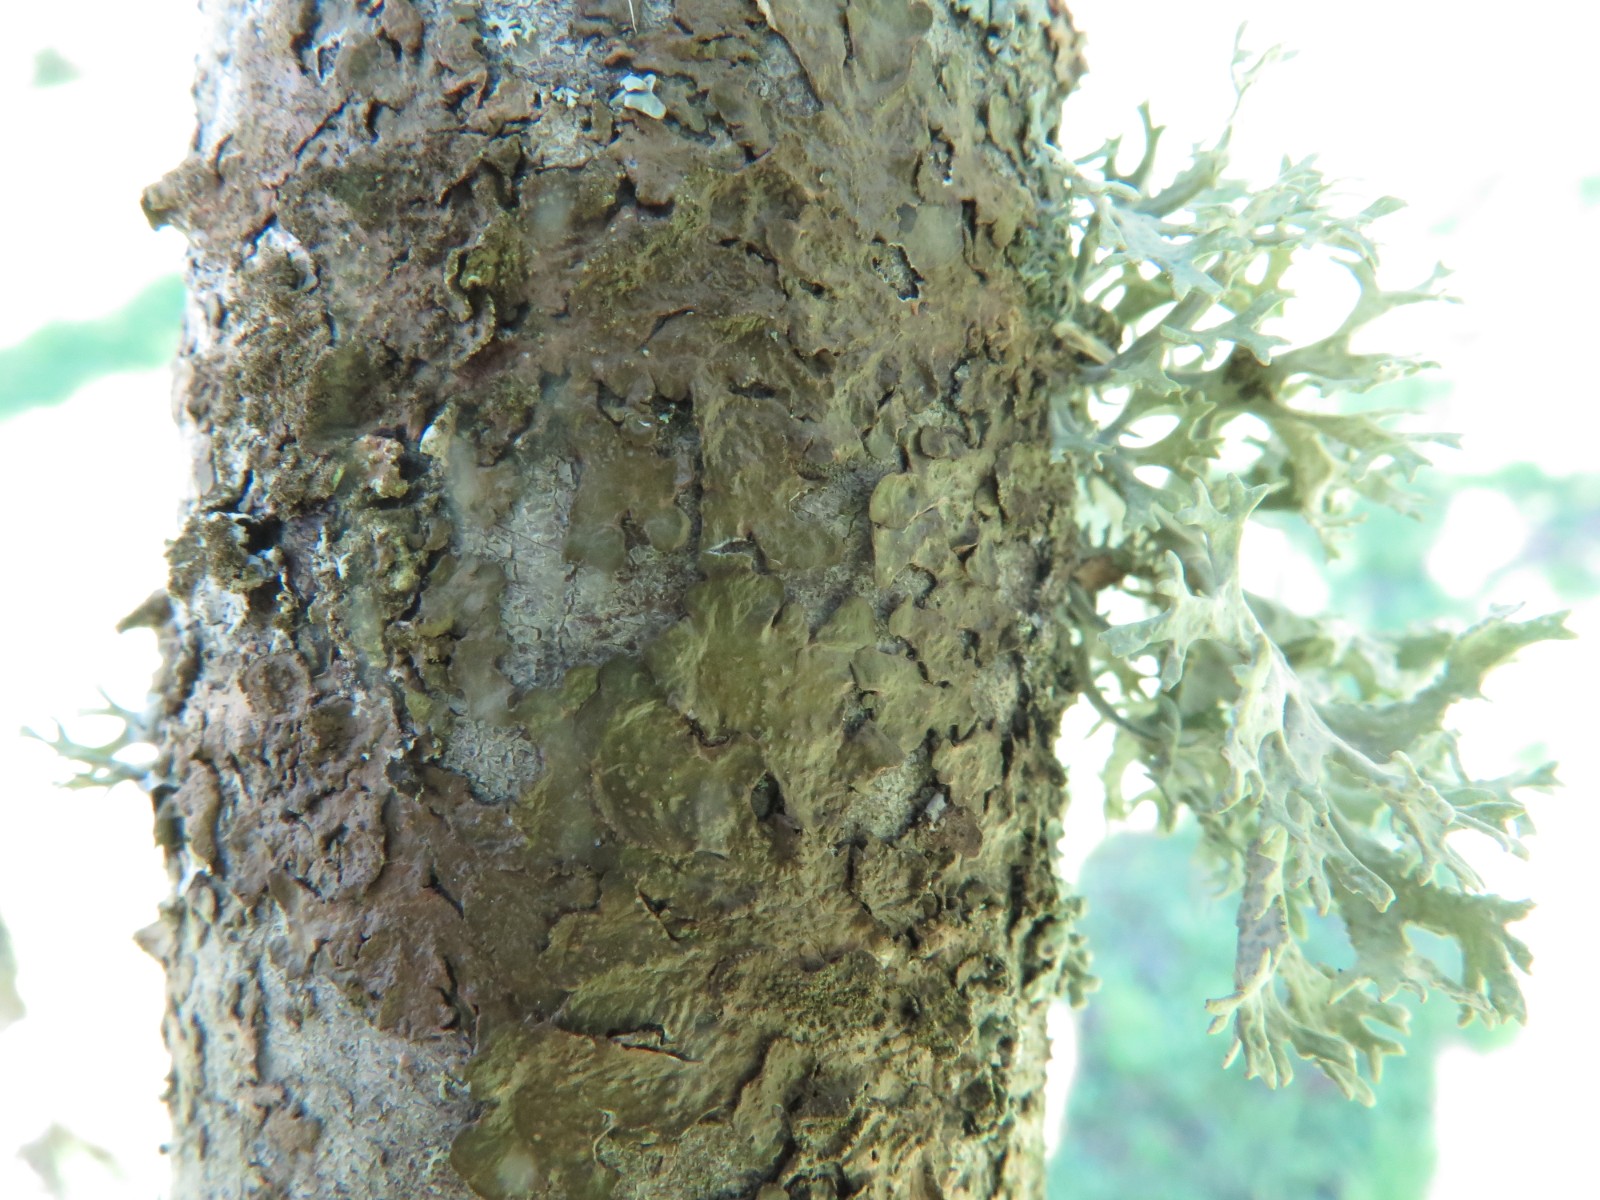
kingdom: Fungi
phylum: Ascomycota
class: Lecanoromycetes
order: Lecanorales
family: Parmeliaceae
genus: Melanelixia
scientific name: Melanelixia subaurifera
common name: guldpudret skållav
